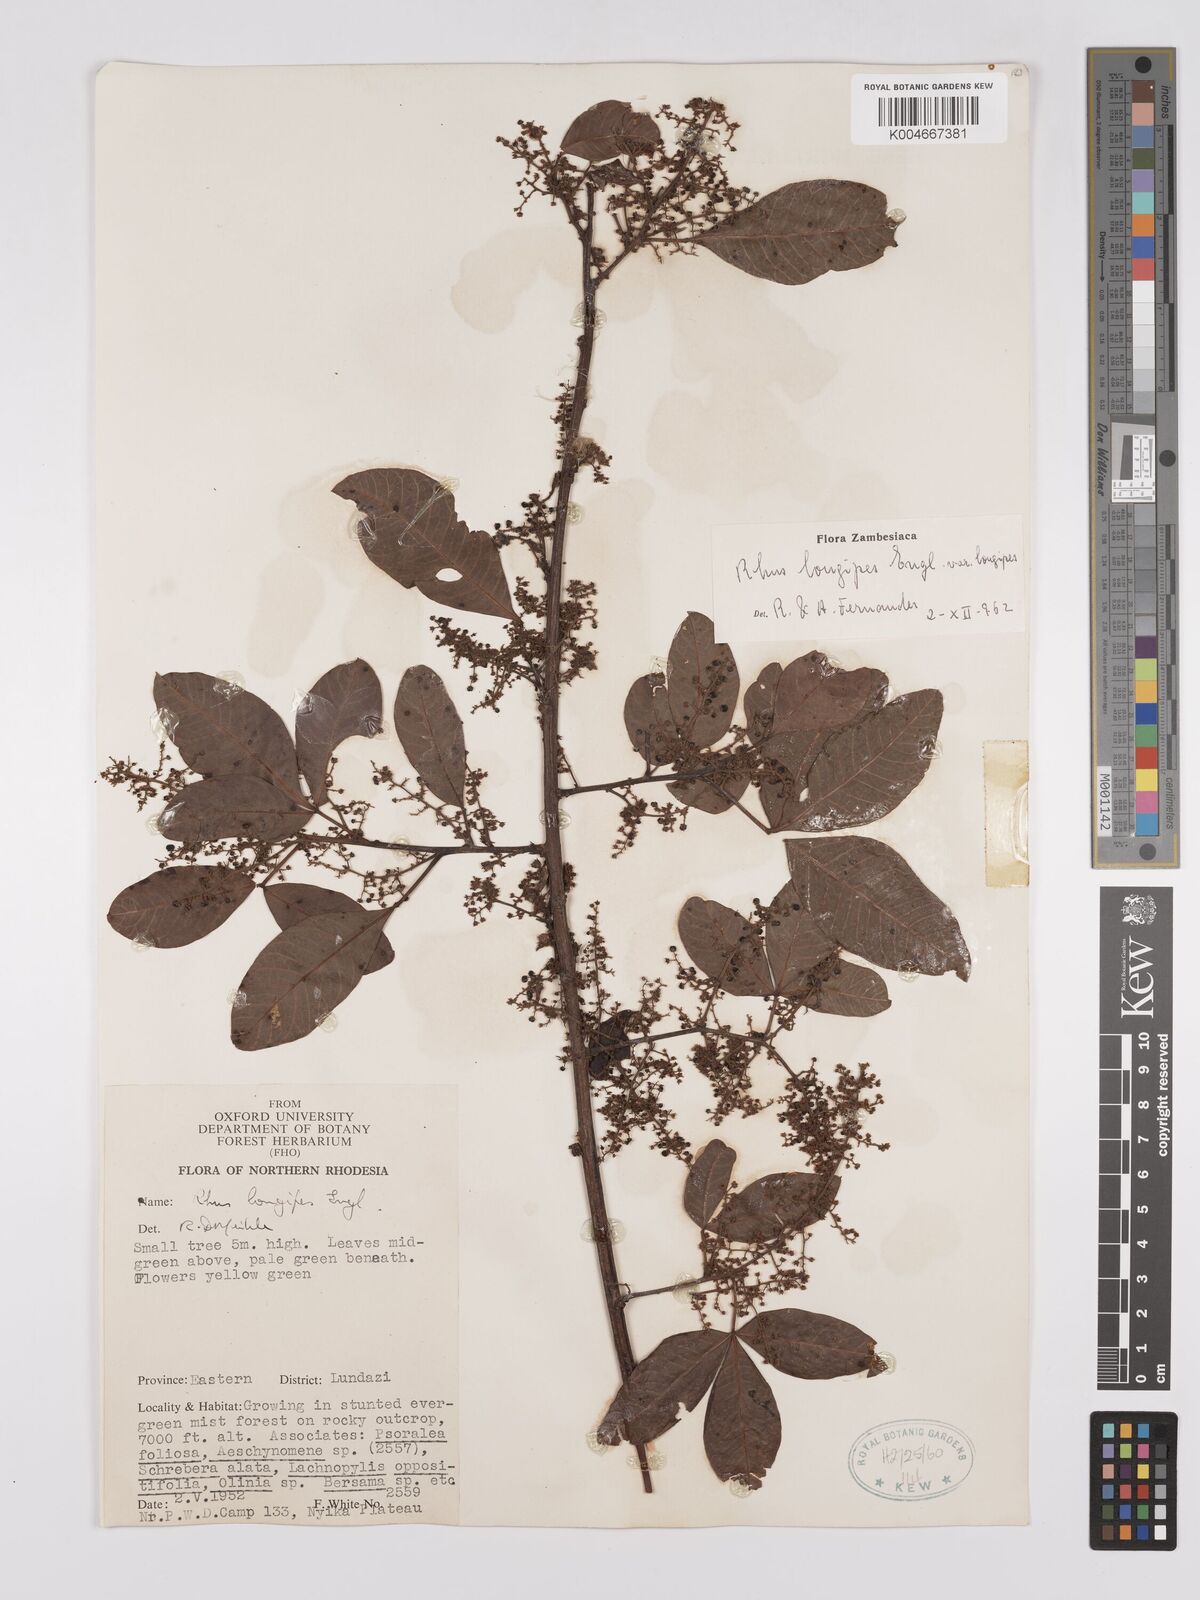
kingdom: Plantae
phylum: Tracheophyta
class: Magnoliopsida
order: Sapindales
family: Anacardiaceae
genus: Searsia
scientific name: Searsia longipes
